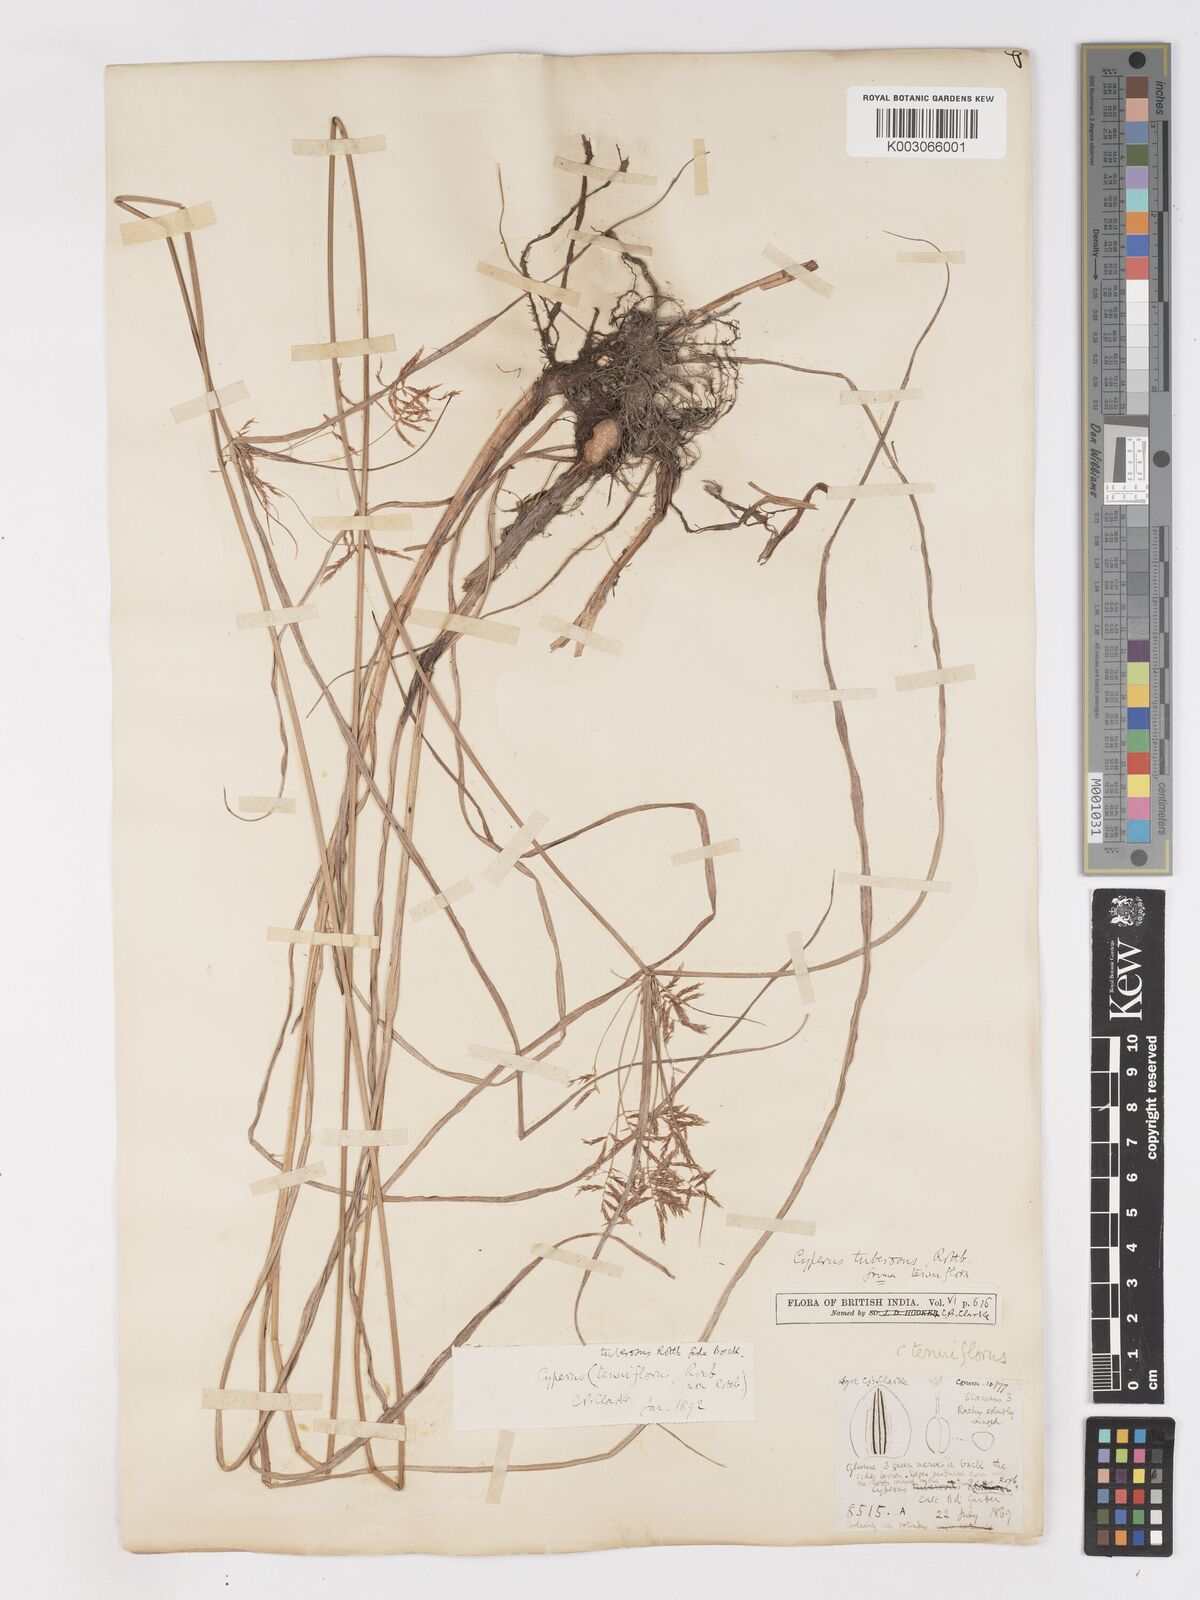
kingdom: Plantae
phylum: Tracheophyta
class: Liliopsida
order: Poales
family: Cyperaceae
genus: Cyperus
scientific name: Cyperus mitis
